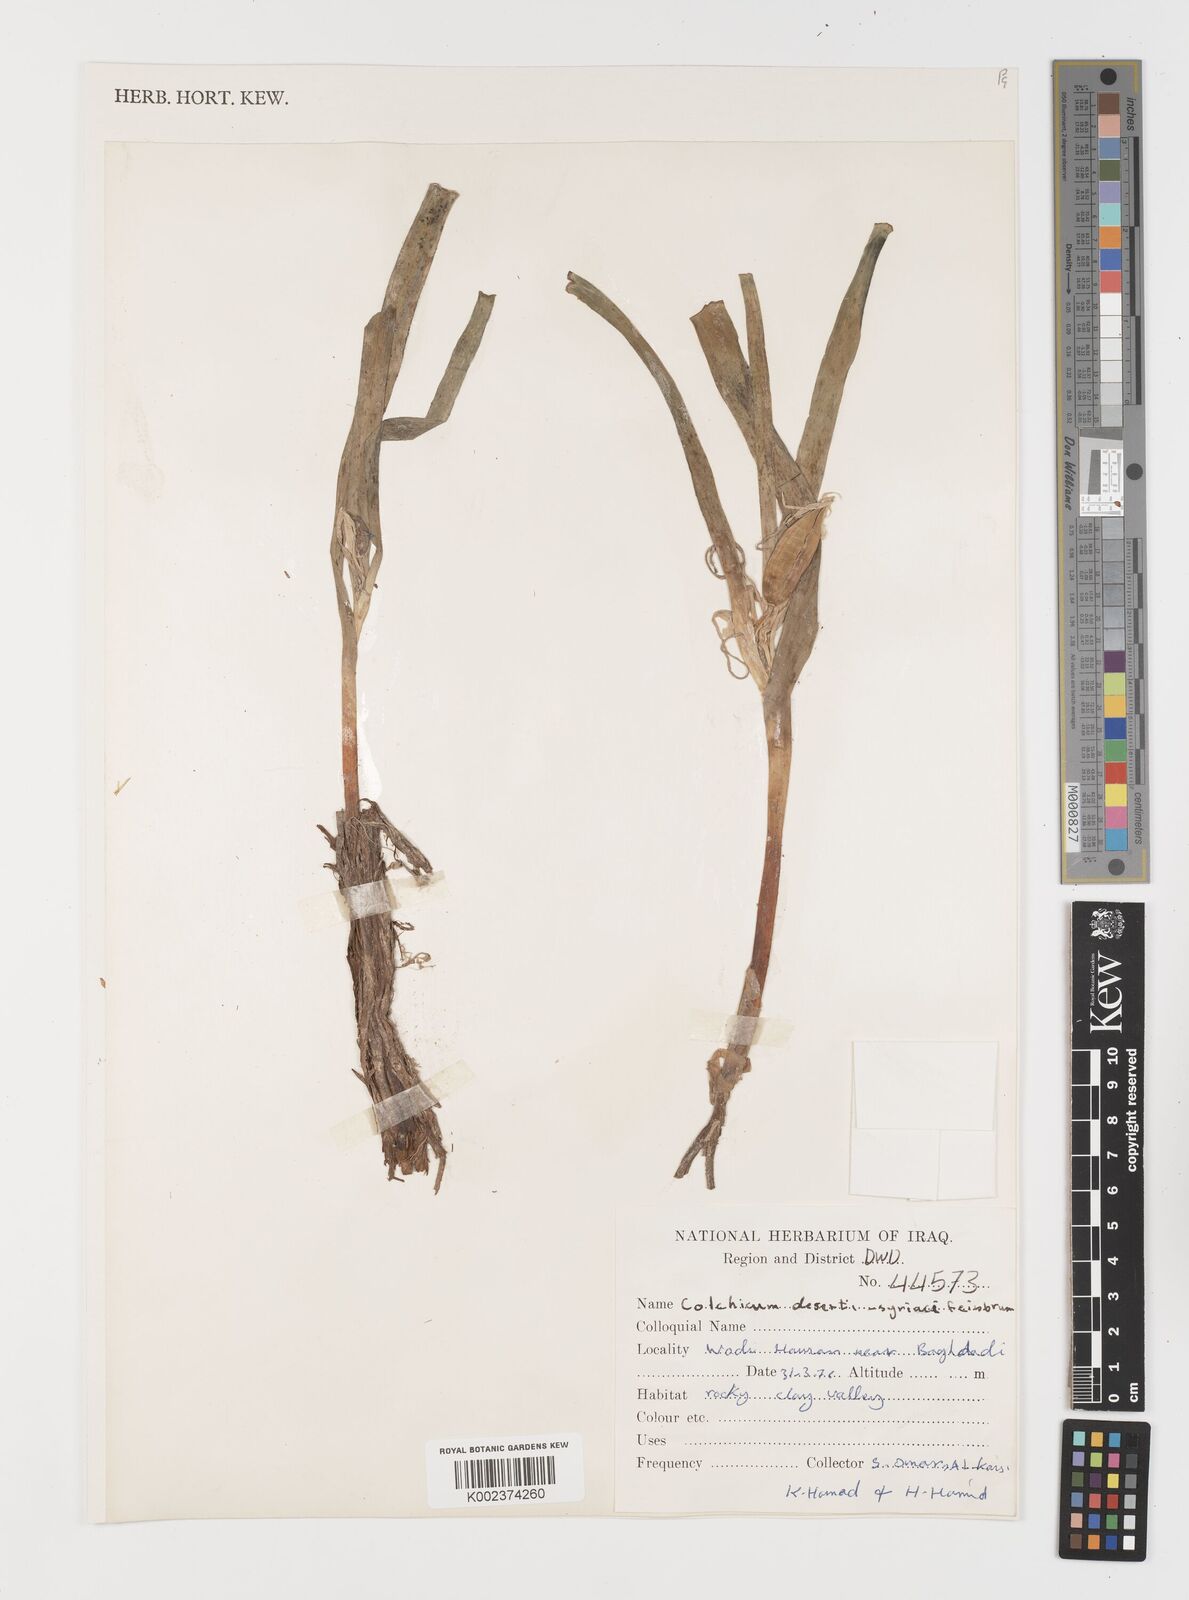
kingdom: Plantae
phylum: Tracheophyta
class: Liliopsida
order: Liliales
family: Colchicaceae
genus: Colchicum
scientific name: Colchicum schimperi
